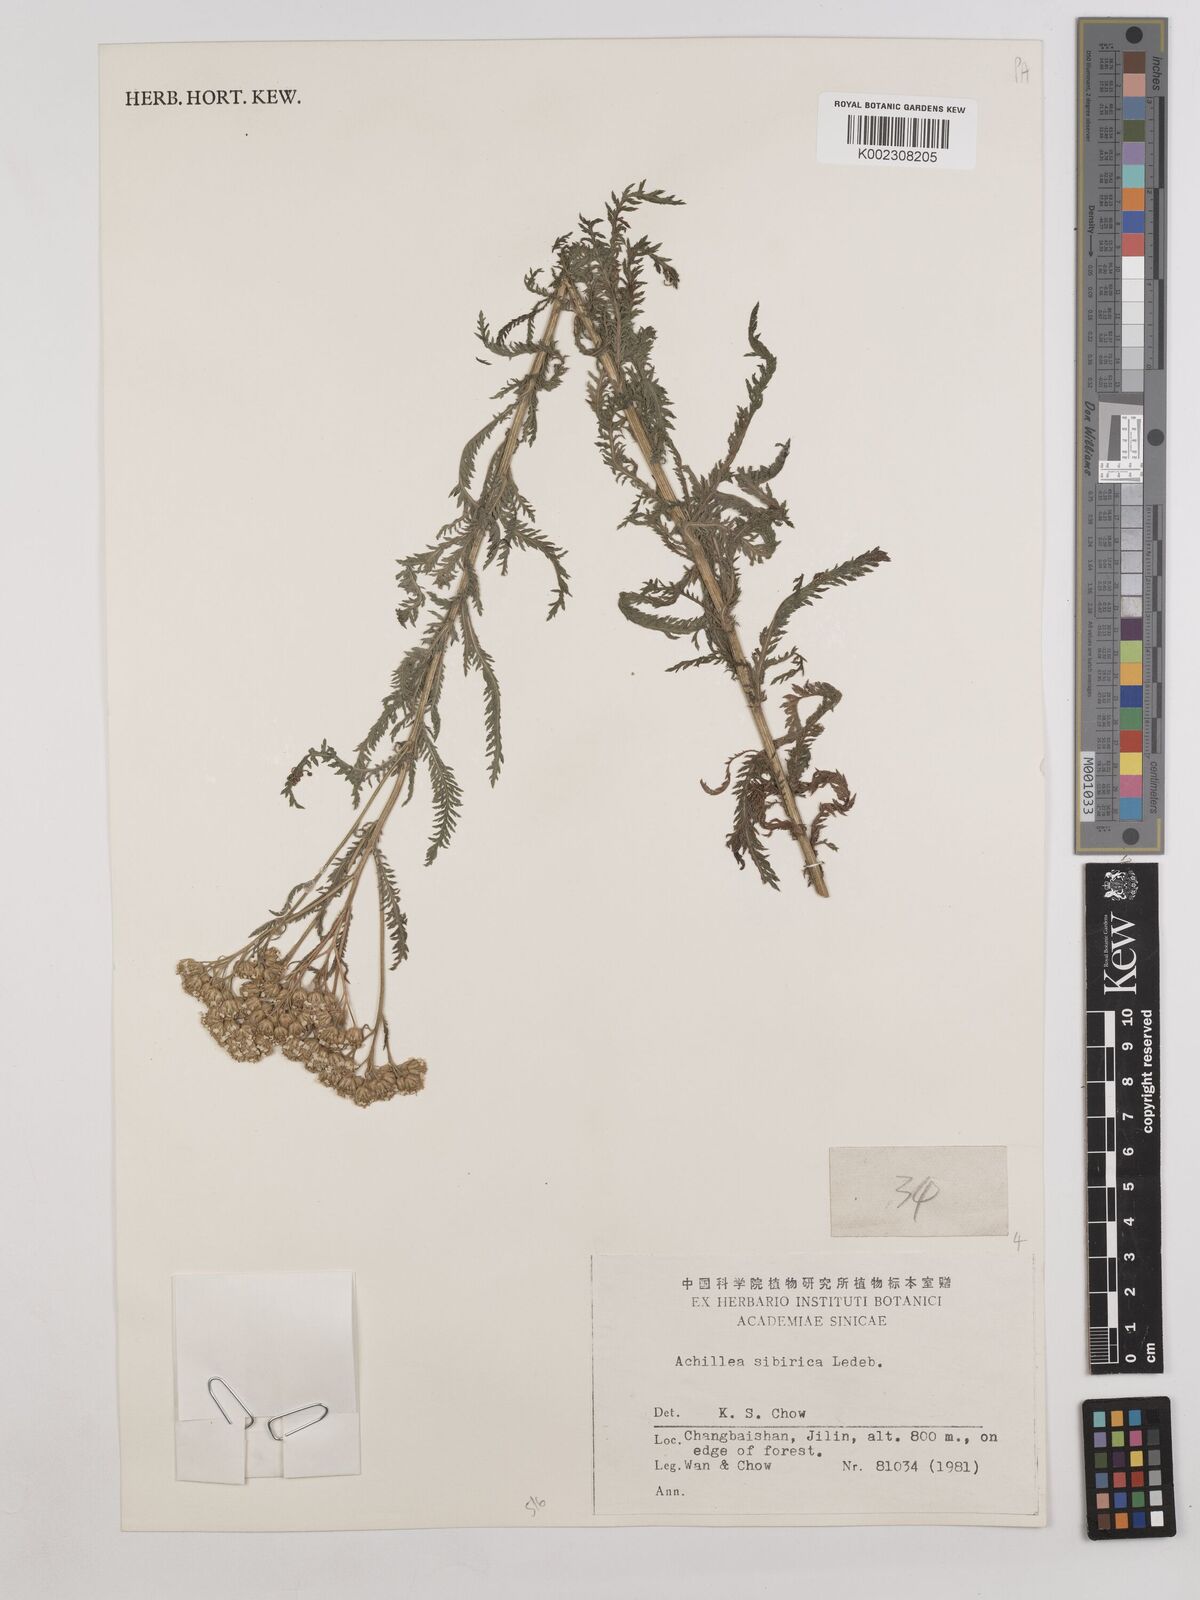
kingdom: Plantae
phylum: Tracheophyta
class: Magnoliopsida
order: Asterales
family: Asteraceae
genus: Achillea
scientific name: Achillea alpina
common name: Siberian yarrow
